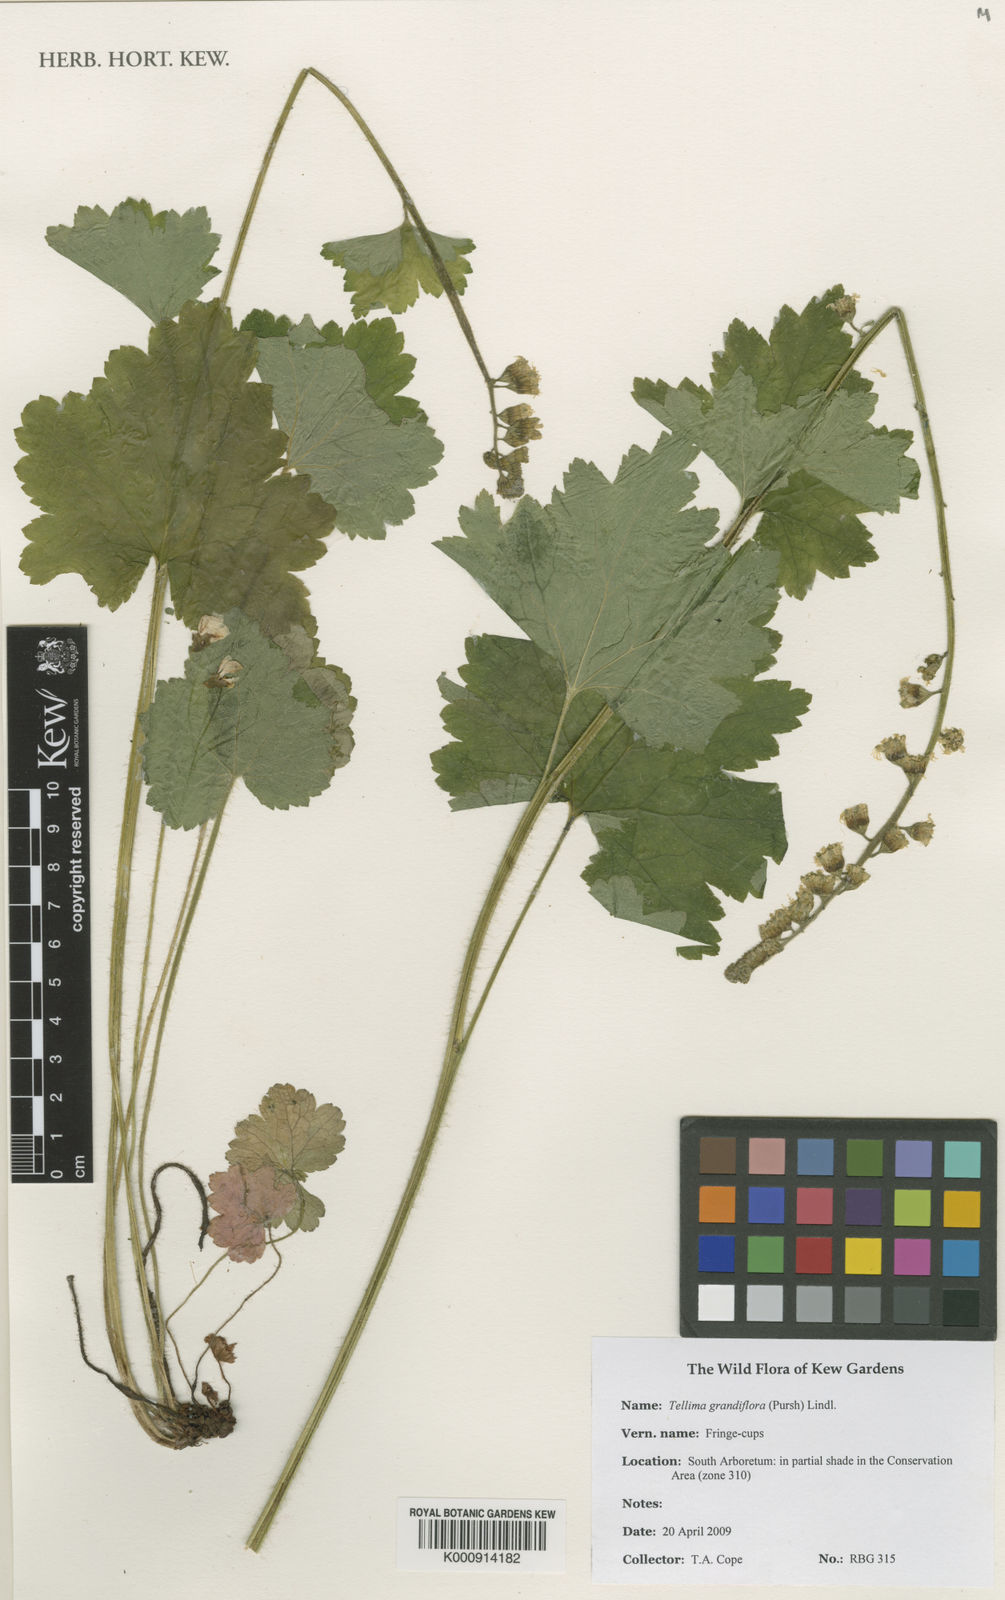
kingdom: Plantae
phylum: Tracheophyta
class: Magnoliopsida
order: Saxifragales
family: Saxifragaceae
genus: Tellima
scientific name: Tellima grandiflora
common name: Fringecups
